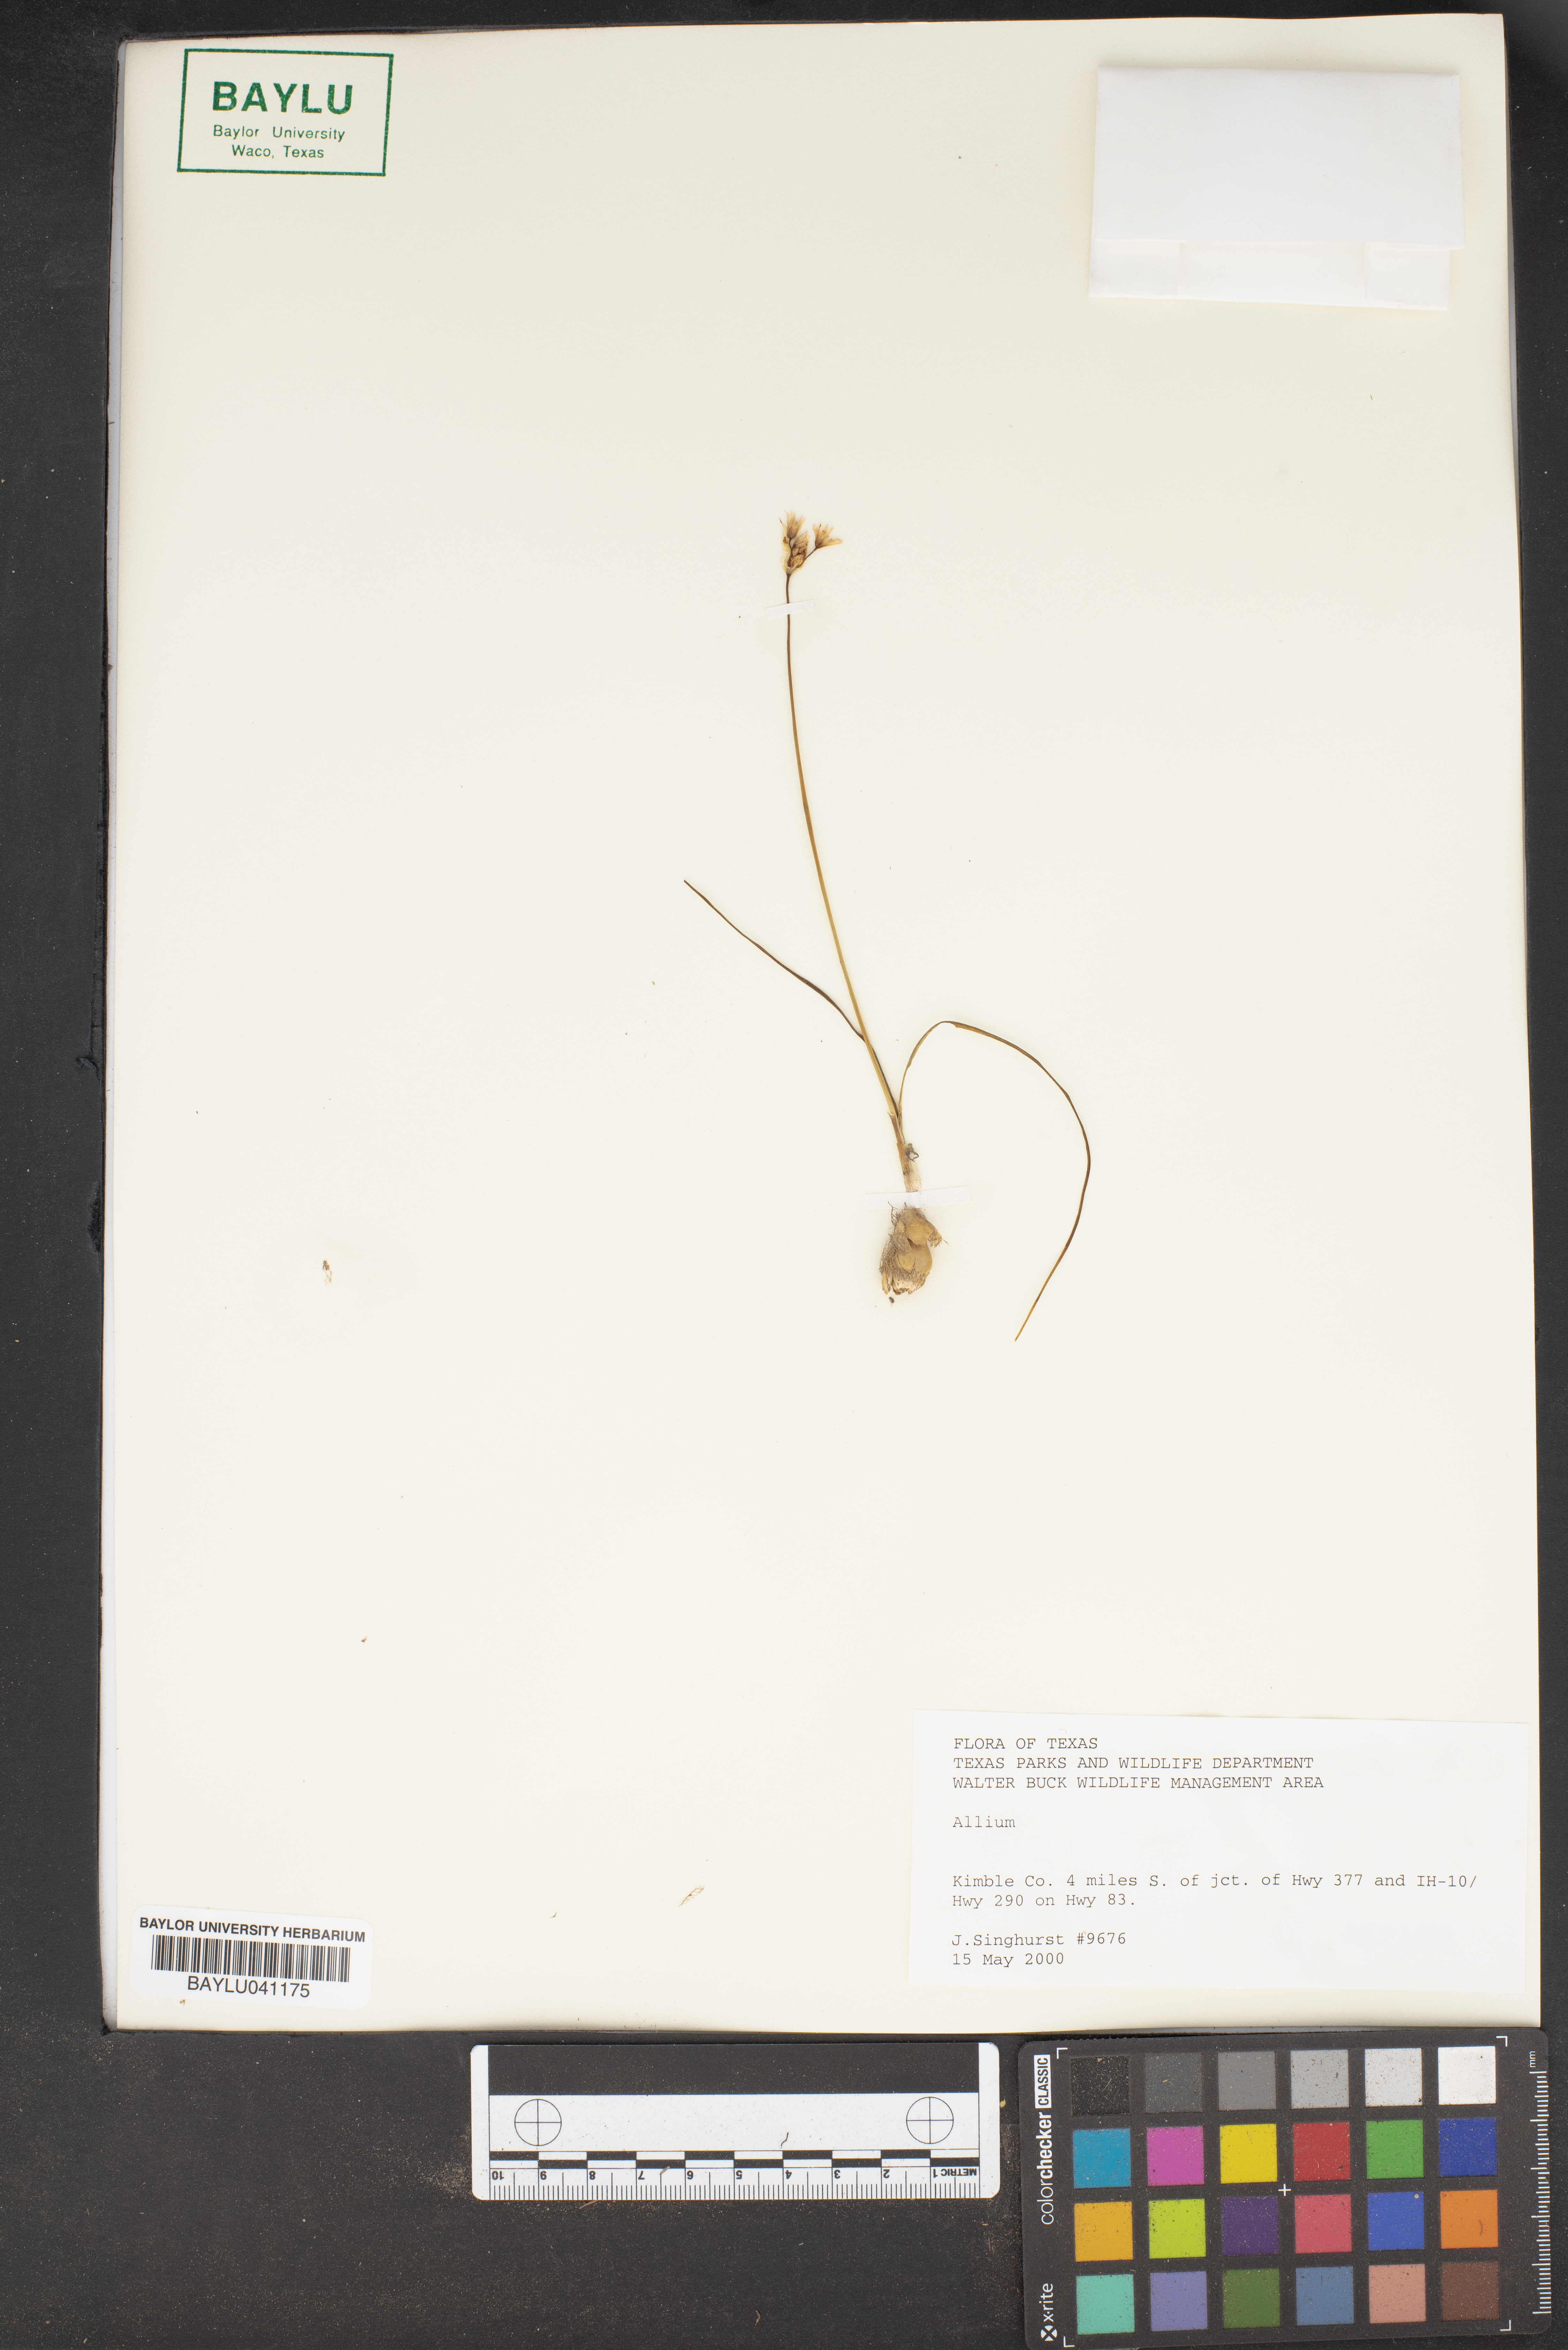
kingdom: Plantae
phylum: Tracheophyta
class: Liliopsida
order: Asparagales
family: Amaryllidaceae
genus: Allium
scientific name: Allium
